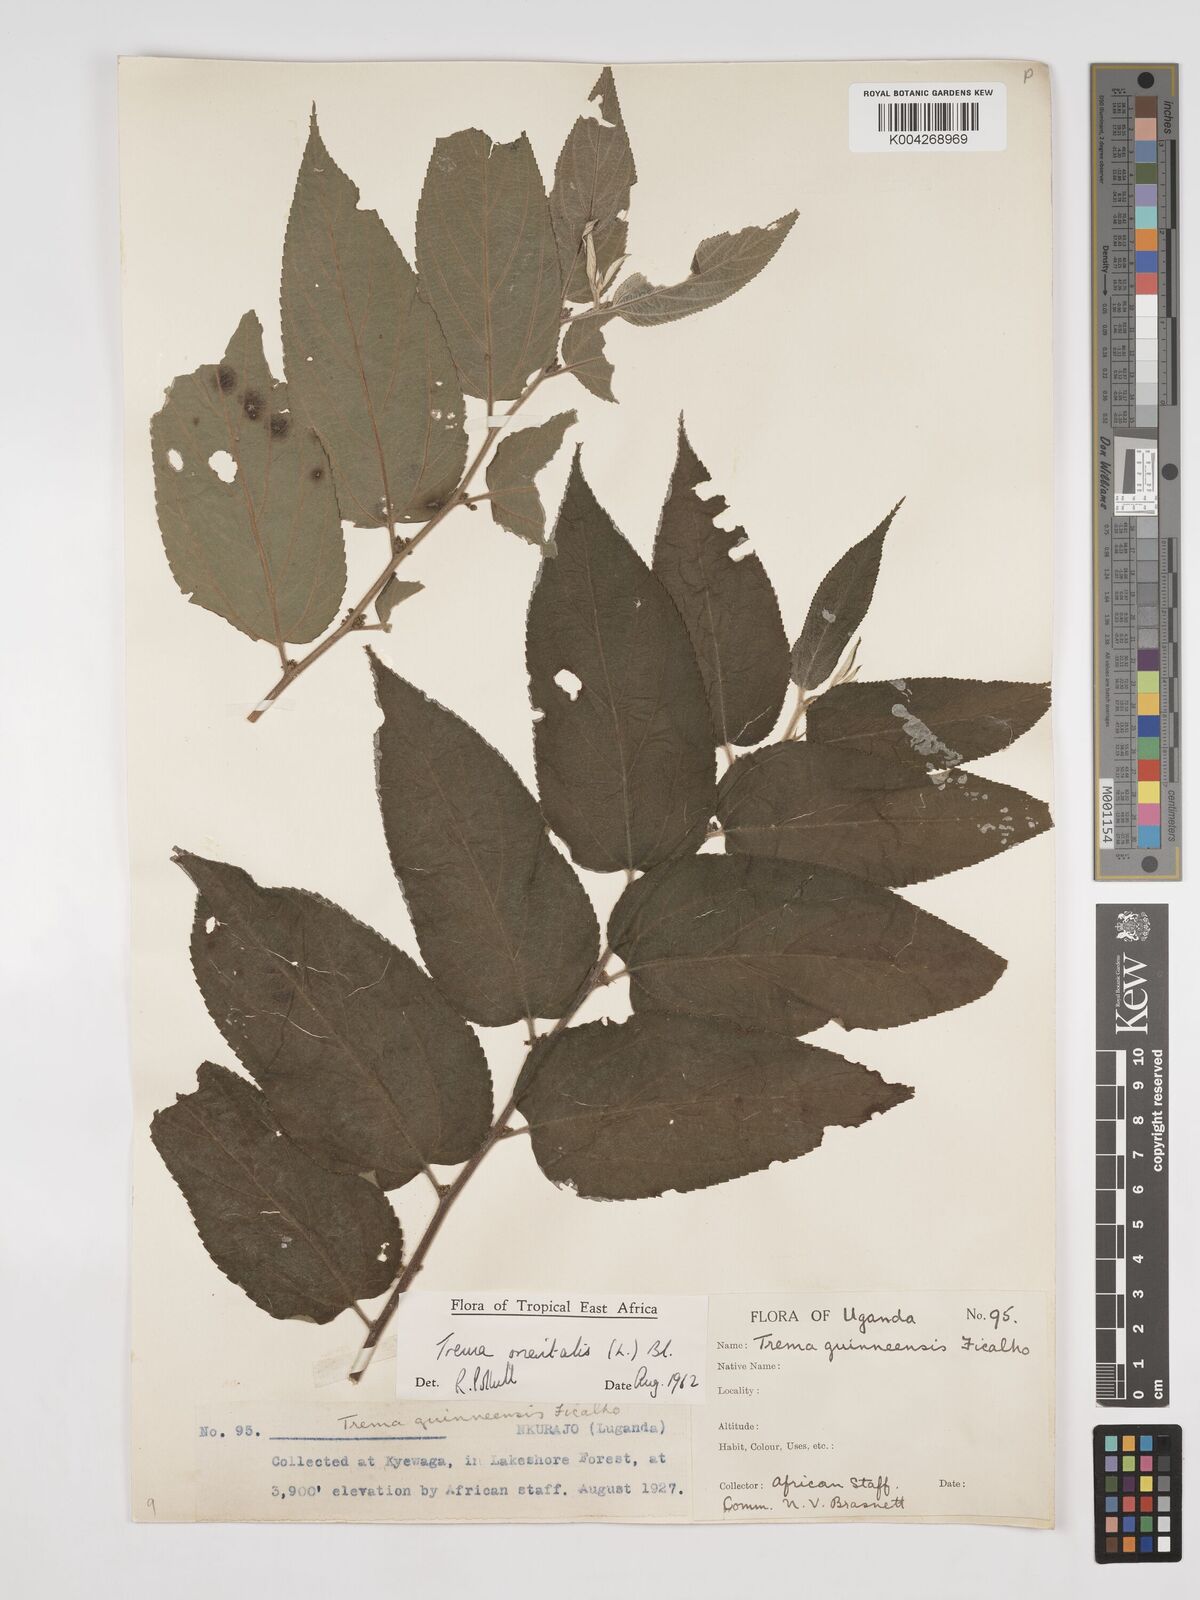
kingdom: Plantae
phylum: Tracheophyta
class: Magnoliopsida
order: Rosales
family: Cannabaceae
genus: Trema
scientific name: Trema orientale
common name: Indian charcoal tree
